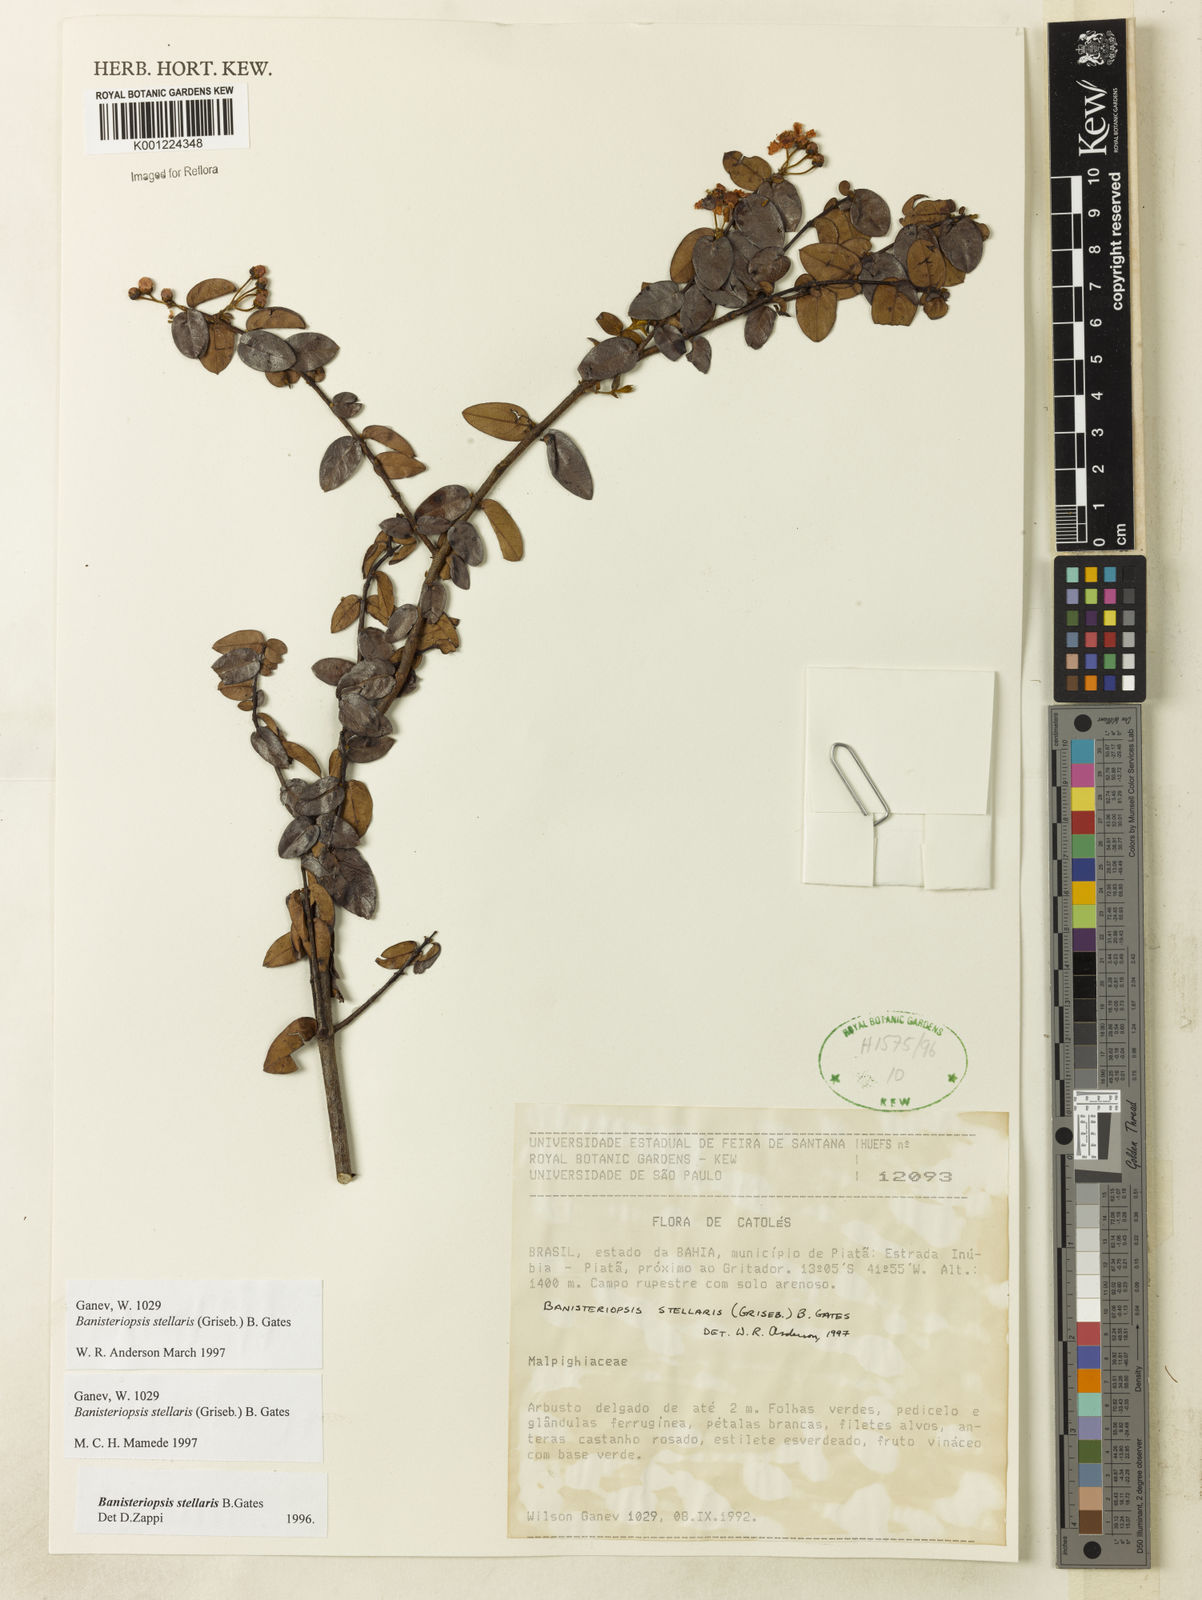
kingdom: Plantae
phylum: Tracheophyta
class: Magnoliopsida
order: Malpighiales
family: Malpighiaceae
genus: Banisteriopsis
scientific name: Banisteriopsis stellaris
